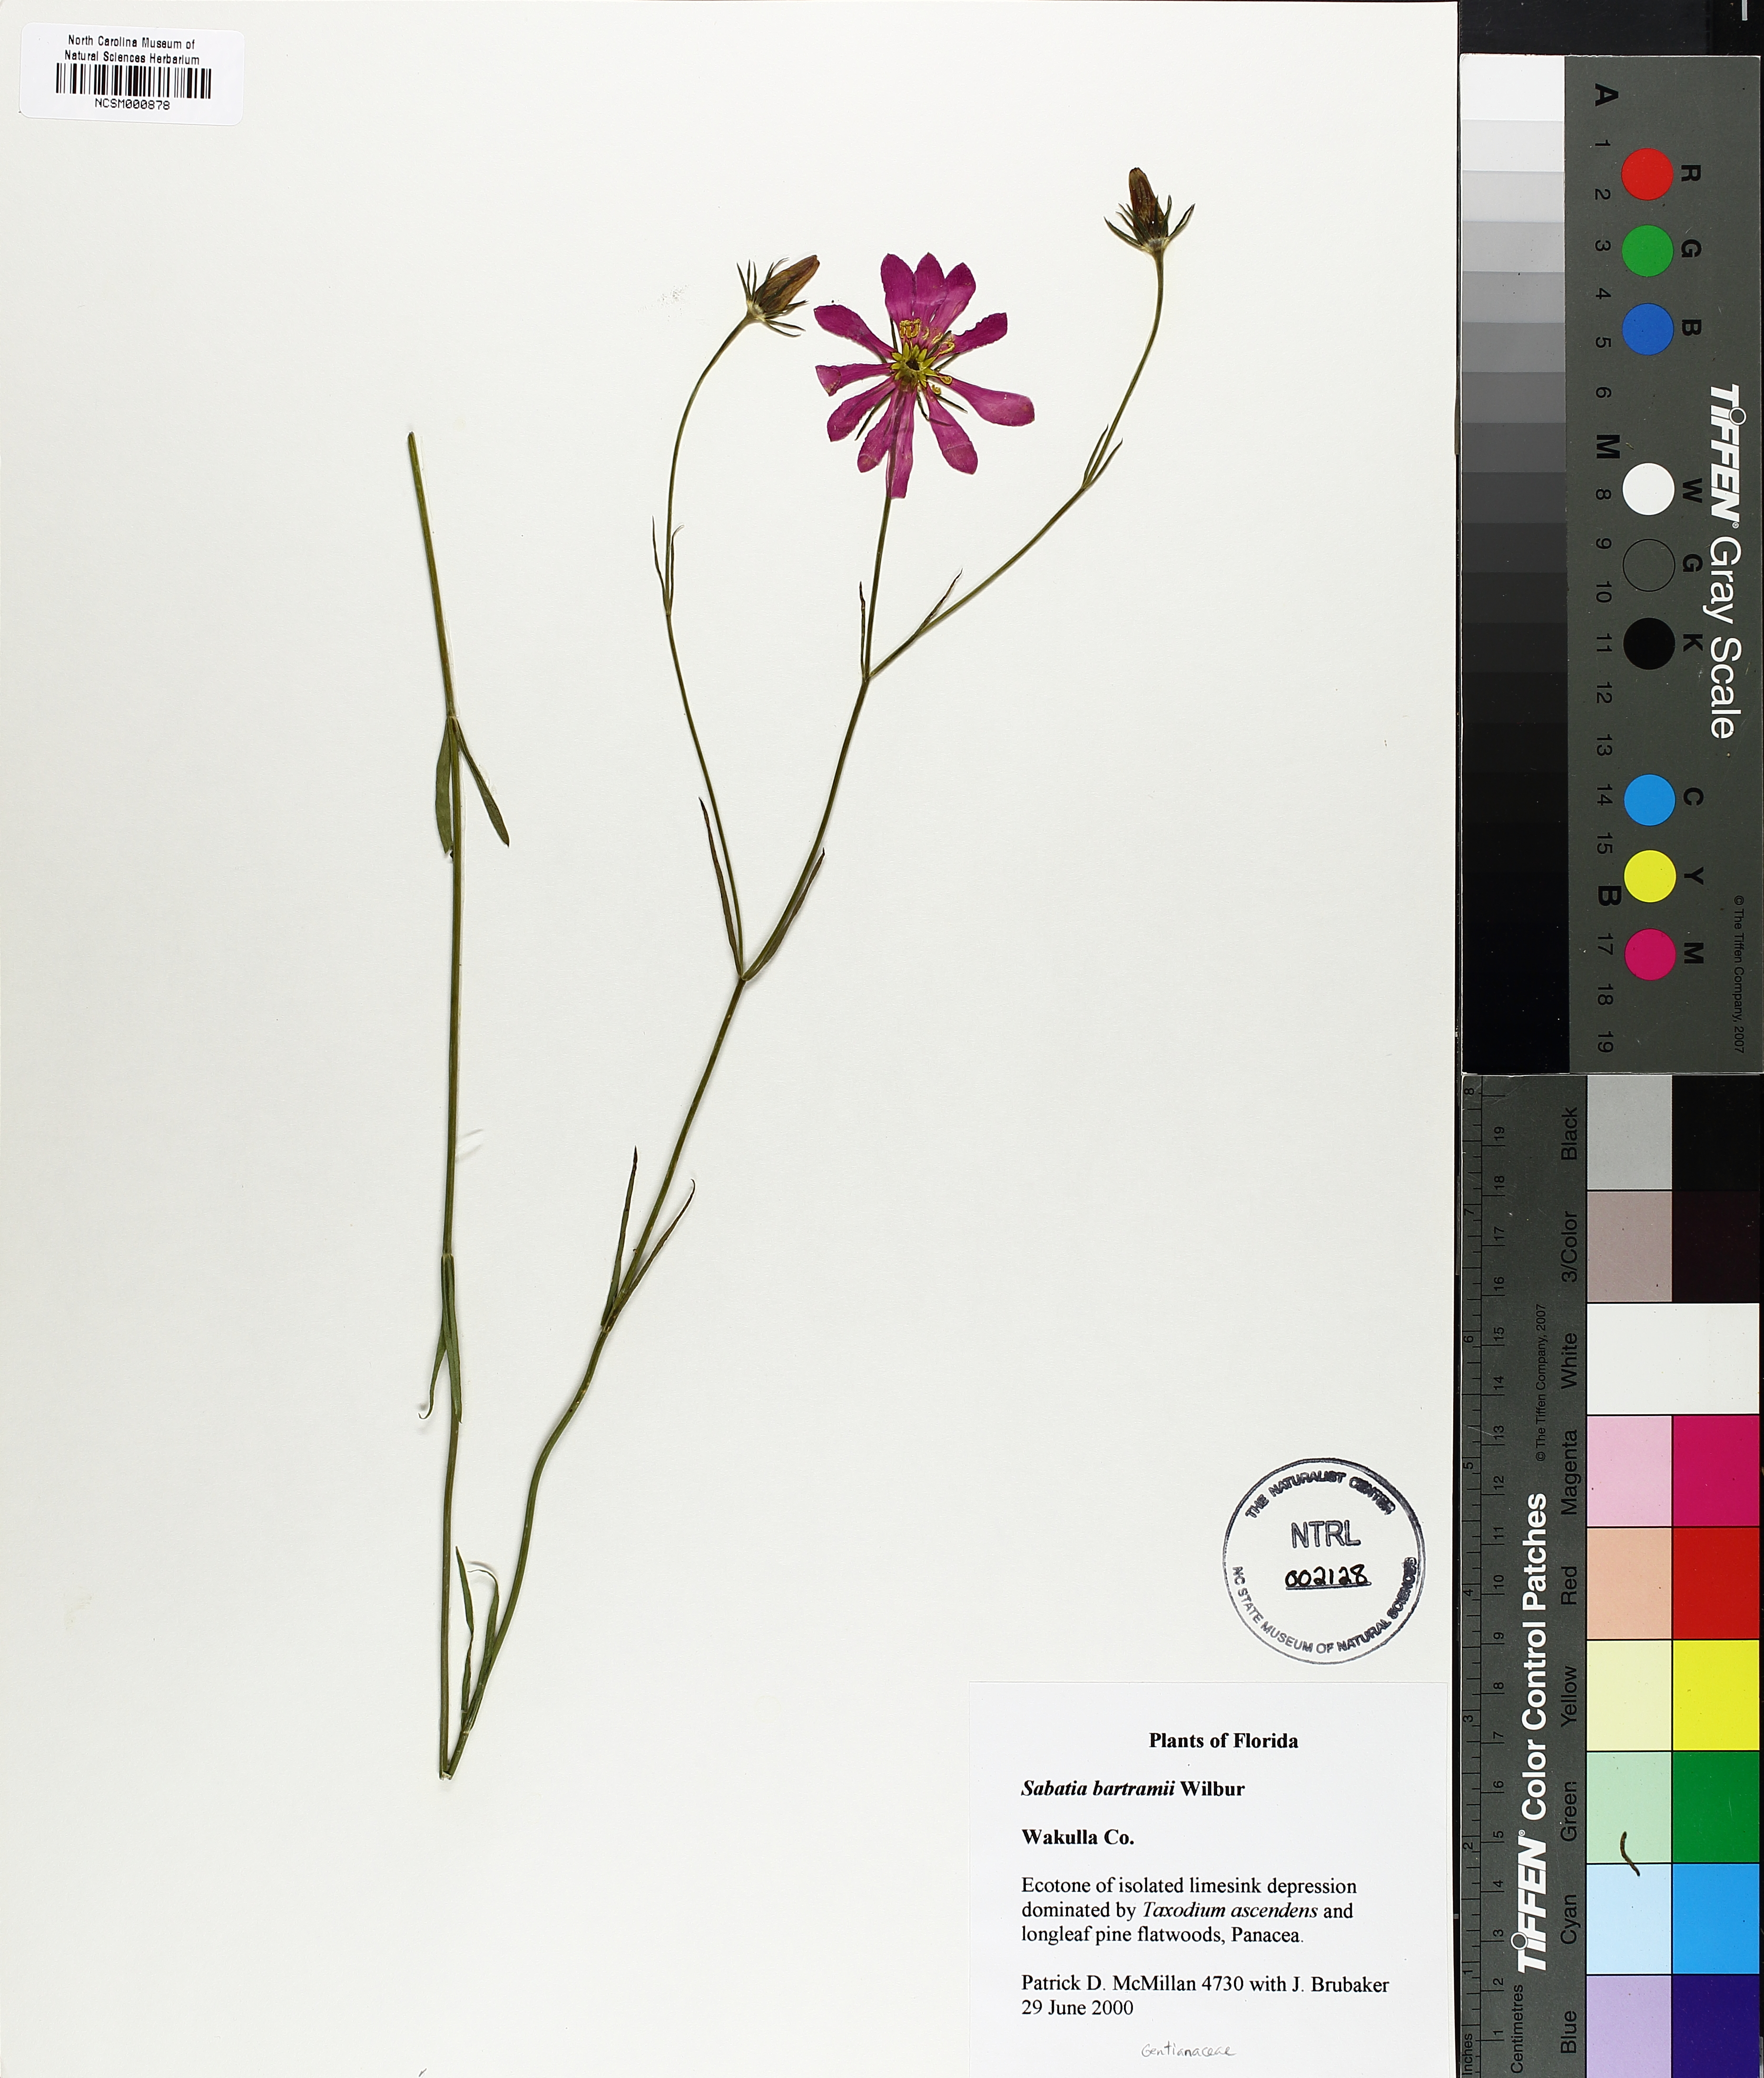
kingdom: Plantae
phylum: Tracheophyta
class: Magnoliopsida
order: Gentianales
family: Gentianaceae
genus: Sabatia
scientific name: Sabatia decandra
